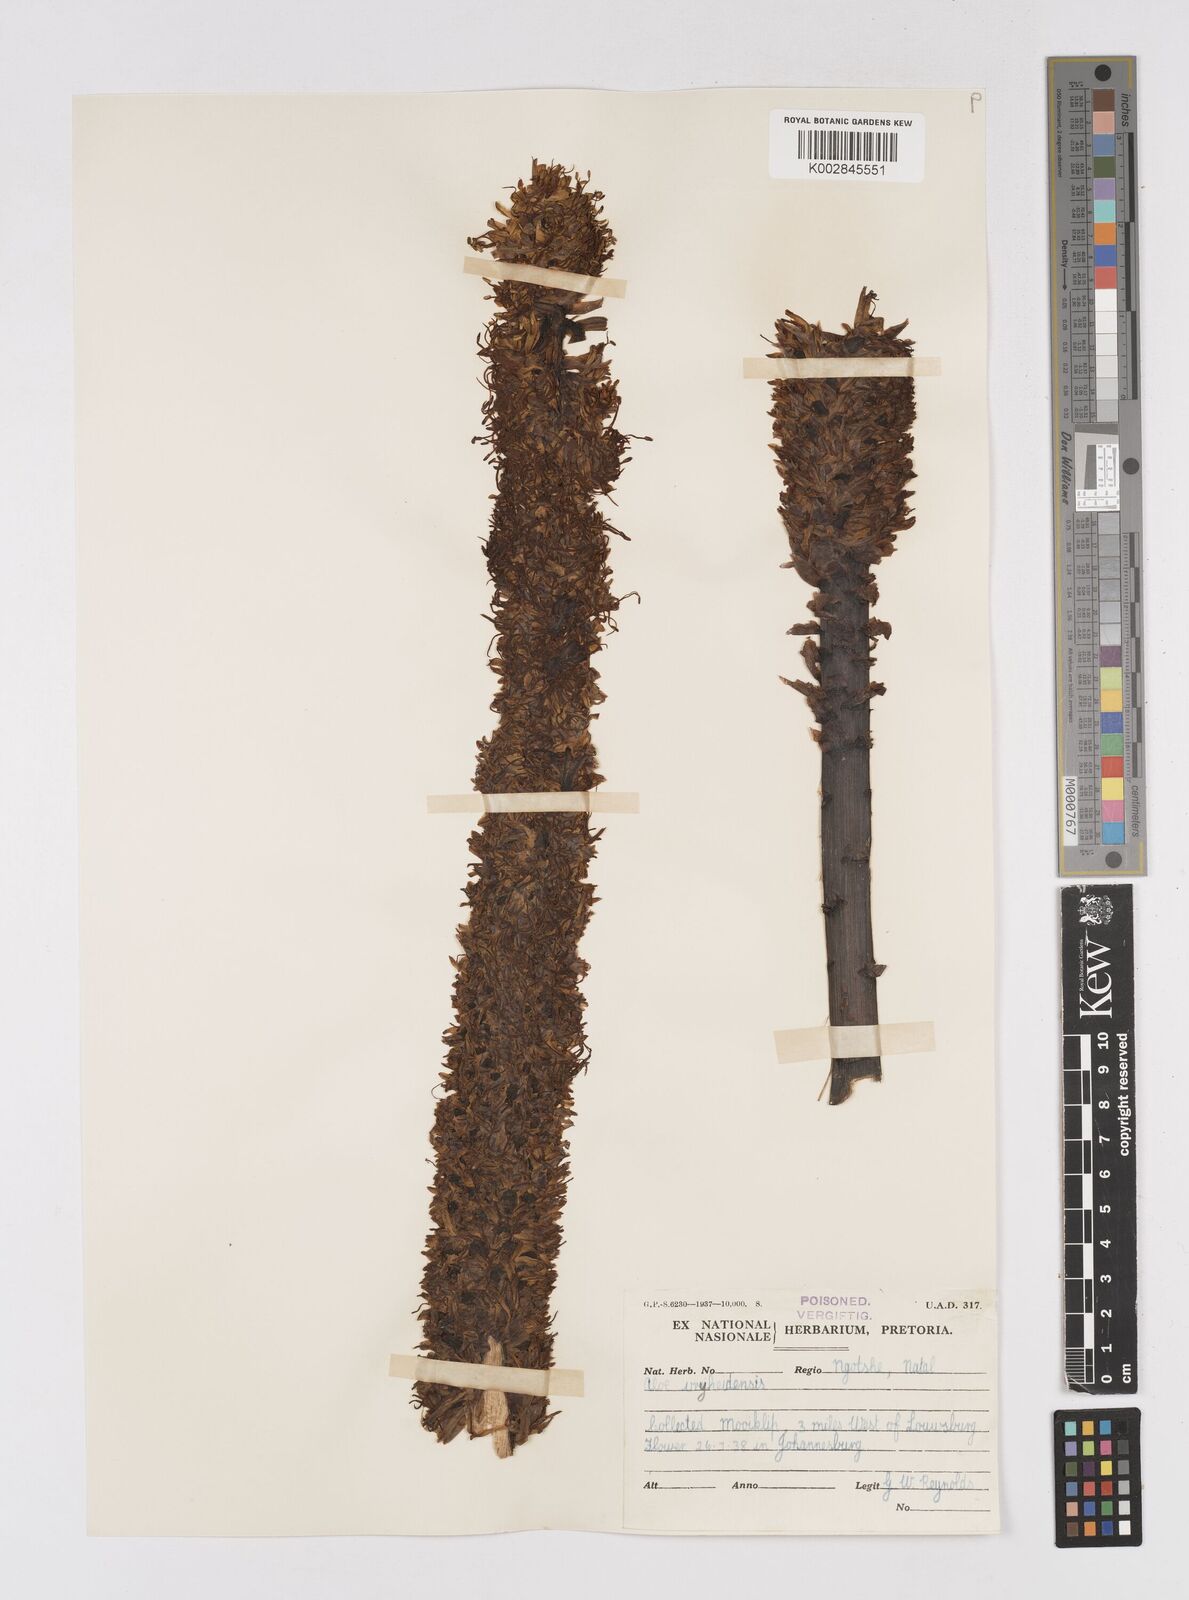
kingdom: Plantae
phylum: Tracheophyta
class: Liliopsida
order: Asparagales
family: Asphodelaceae
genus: Aloe
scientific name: Aloe vryheidensis
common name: Vryheid aloe
